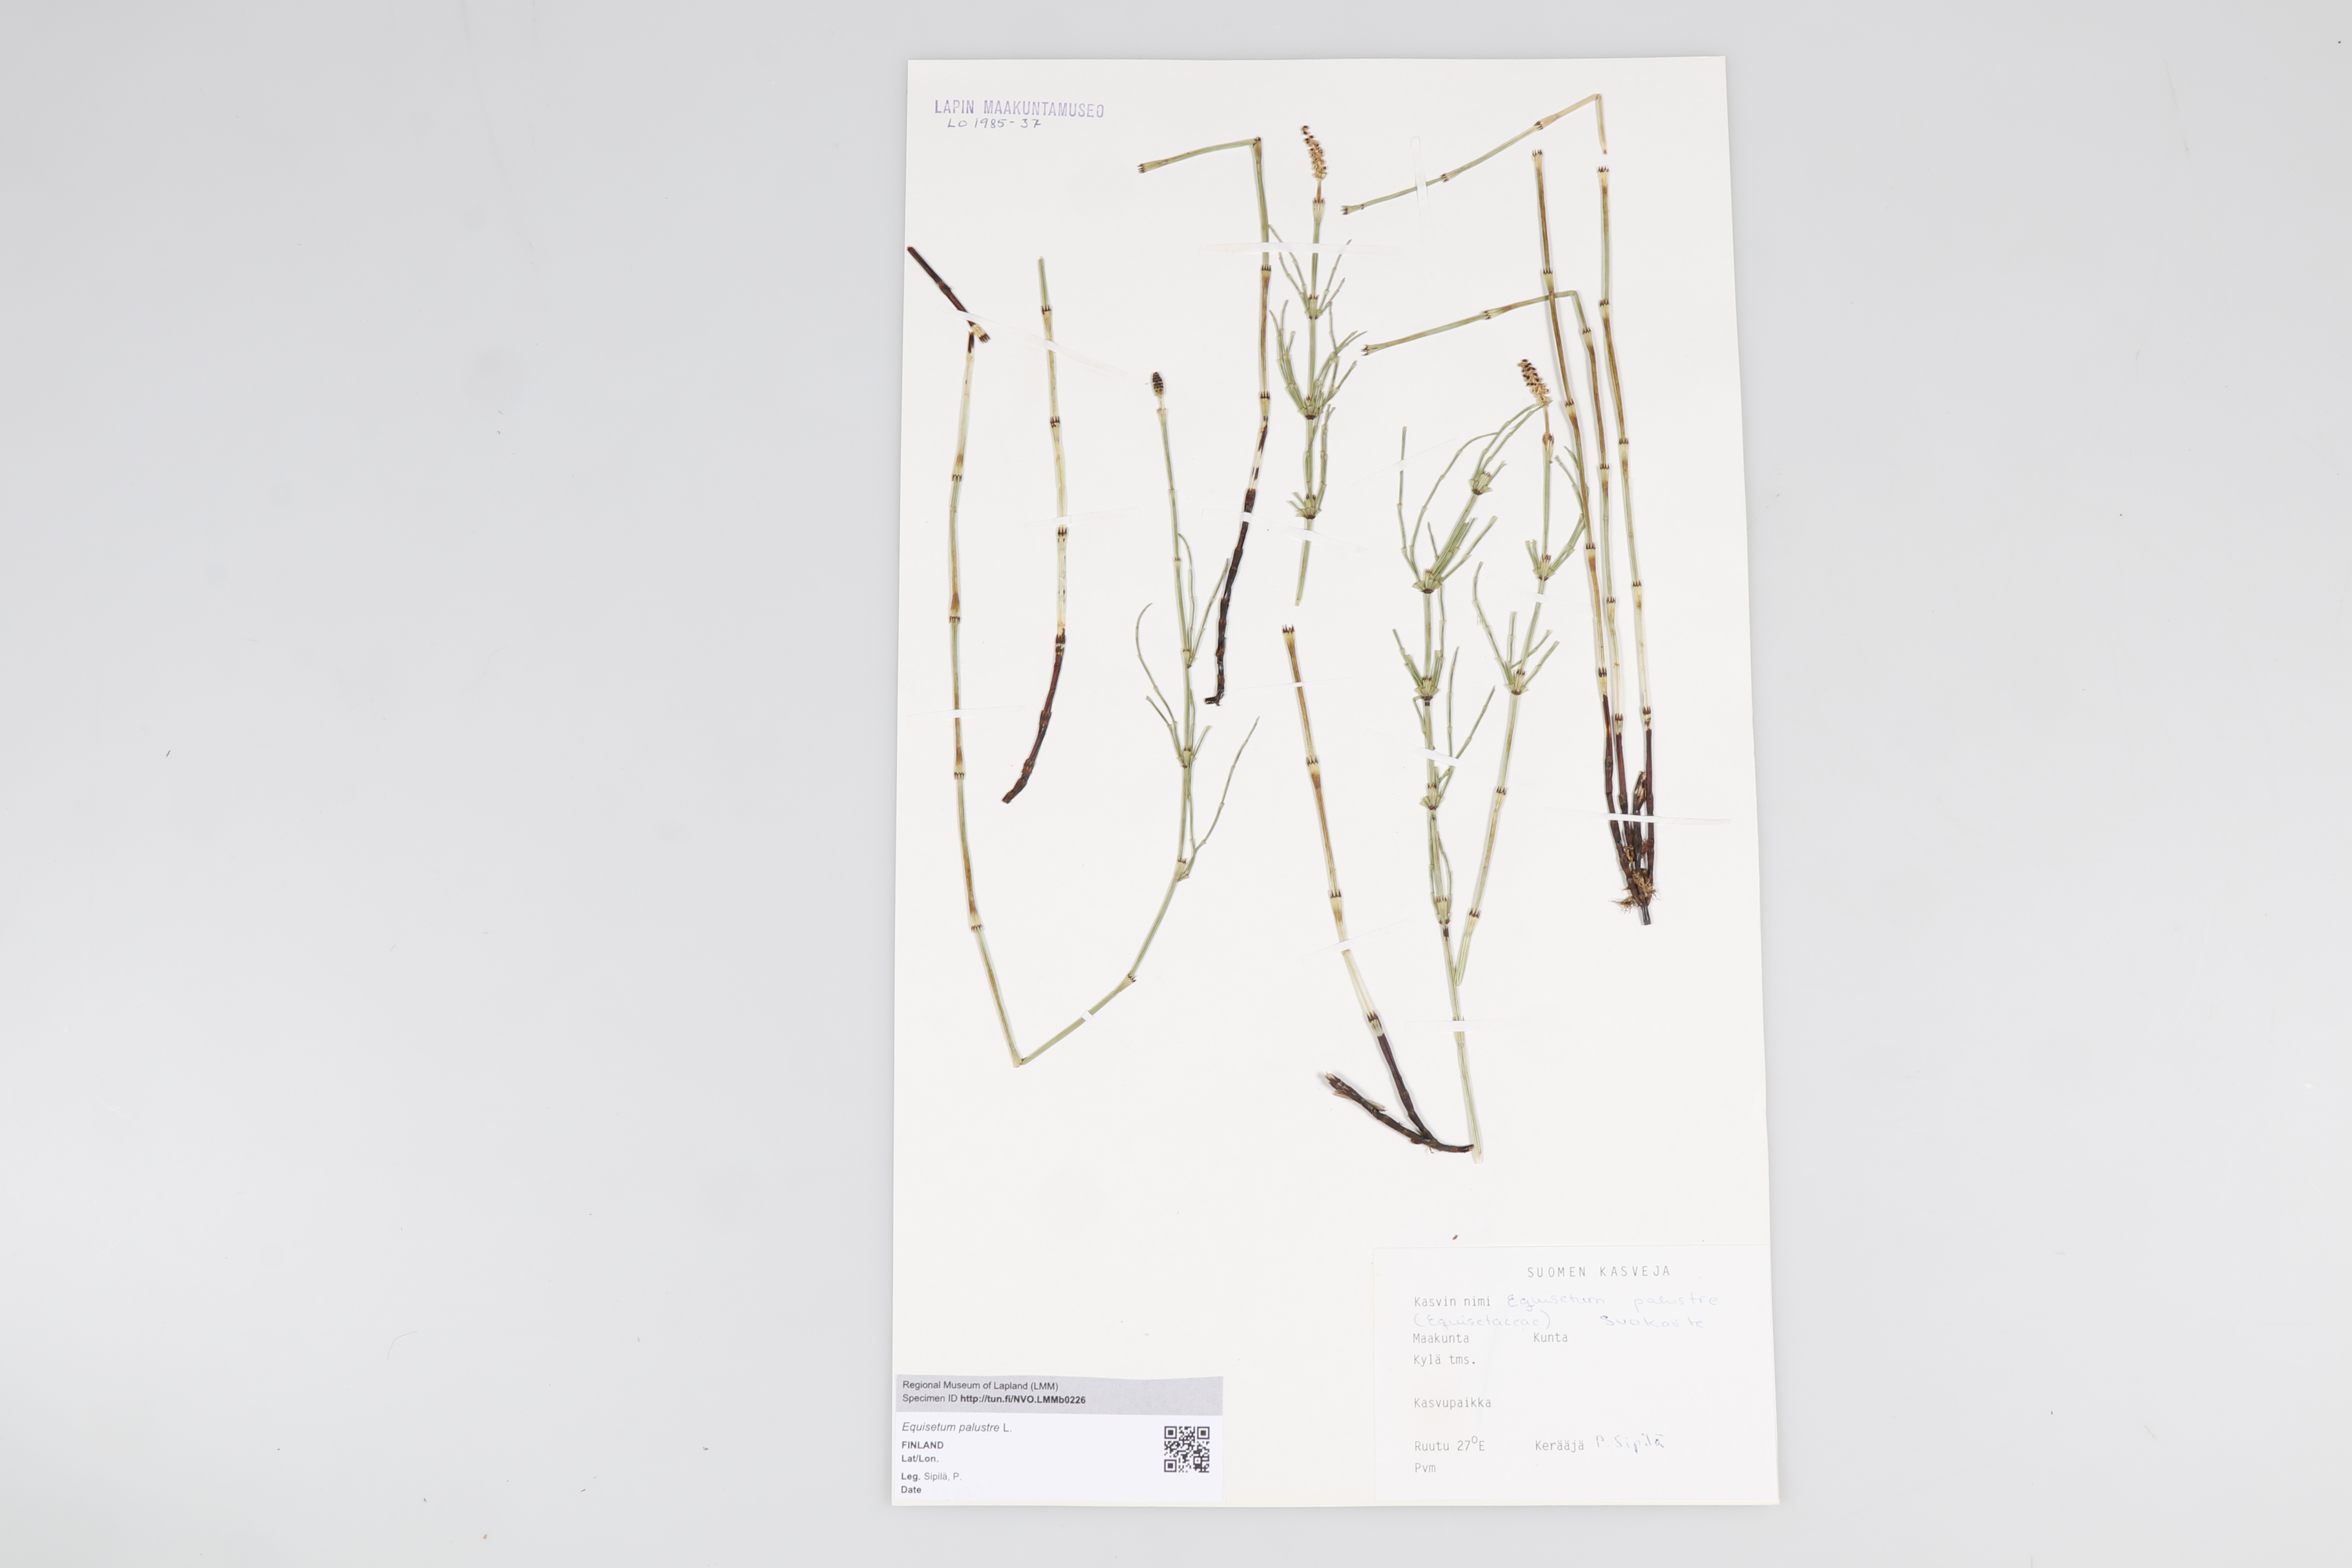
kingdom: Plantae
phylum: Tracheophyta
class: Polypodiopsida
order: Equisetales
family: Equisetaceae
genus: Equisetum
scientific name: Equisetum palustre
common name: Marsh horsetail
